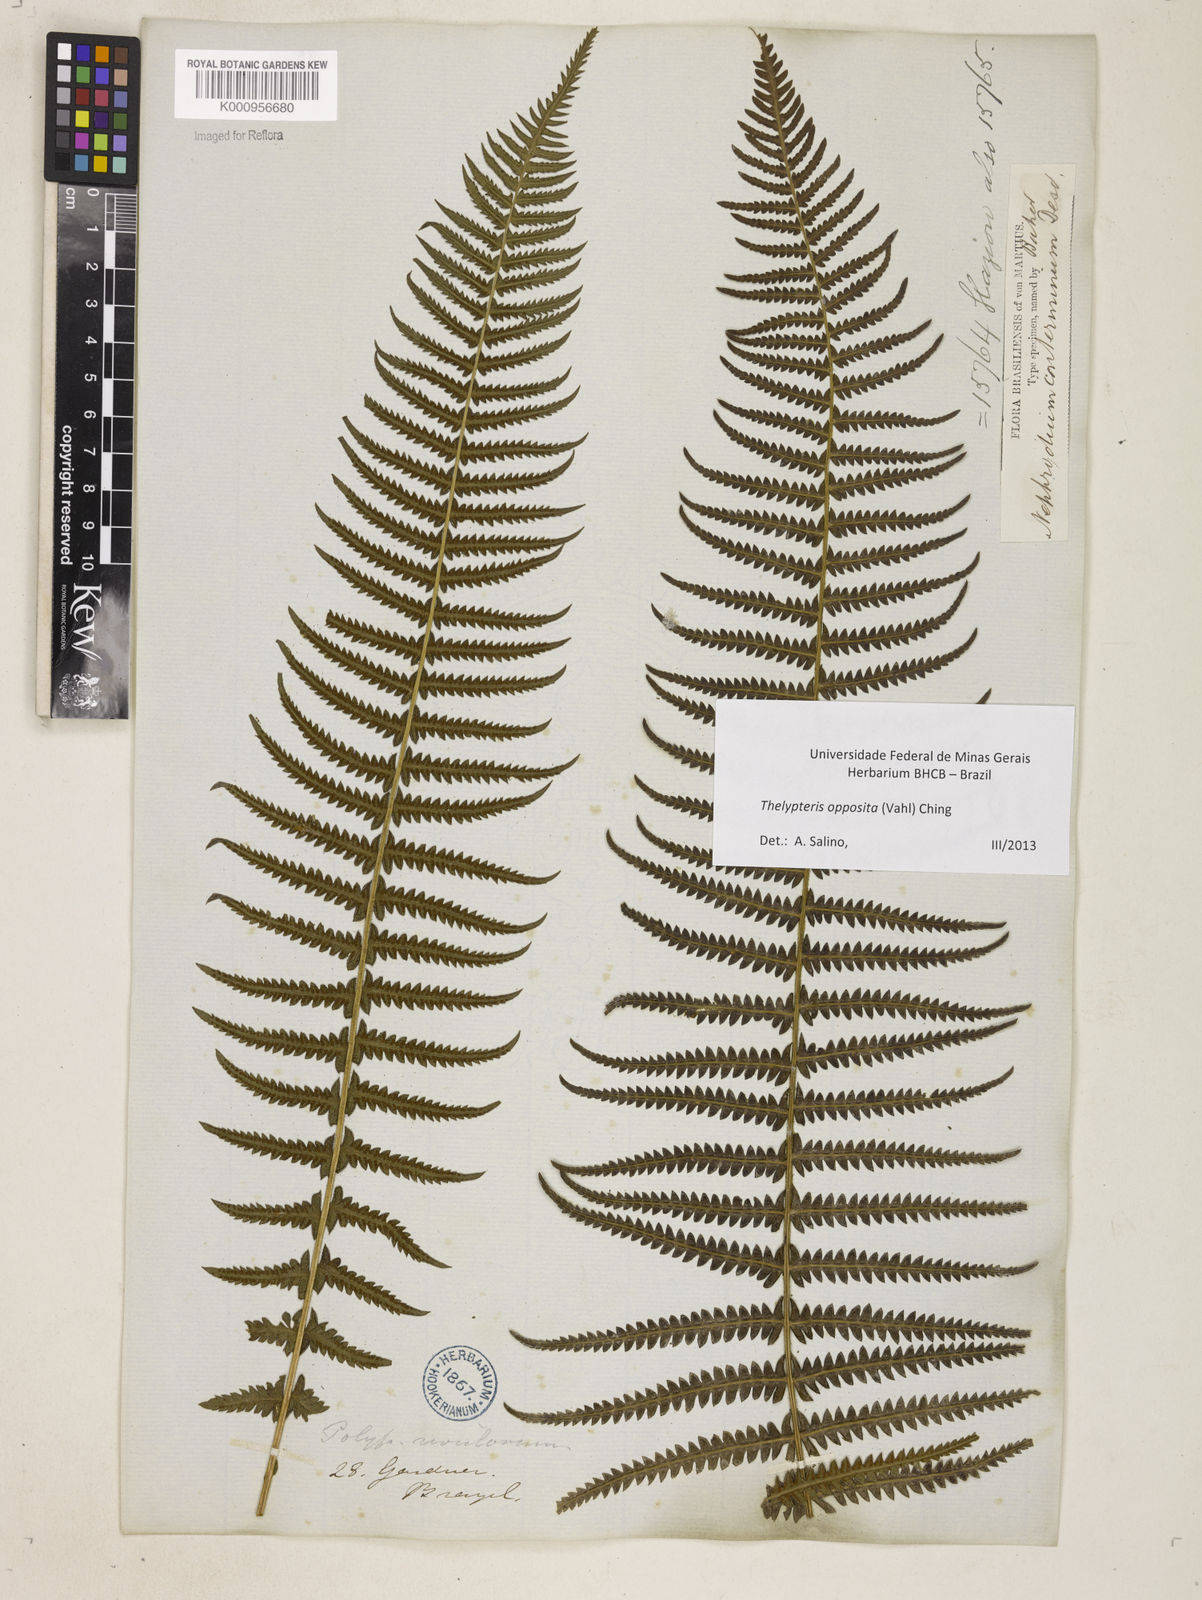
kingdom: Plantae
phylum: Tracheophyta
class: Polypodiopsida
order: Polypodiales
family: Thelypteridaceae
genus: Amauropelta
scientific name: Amauropelta opposita
